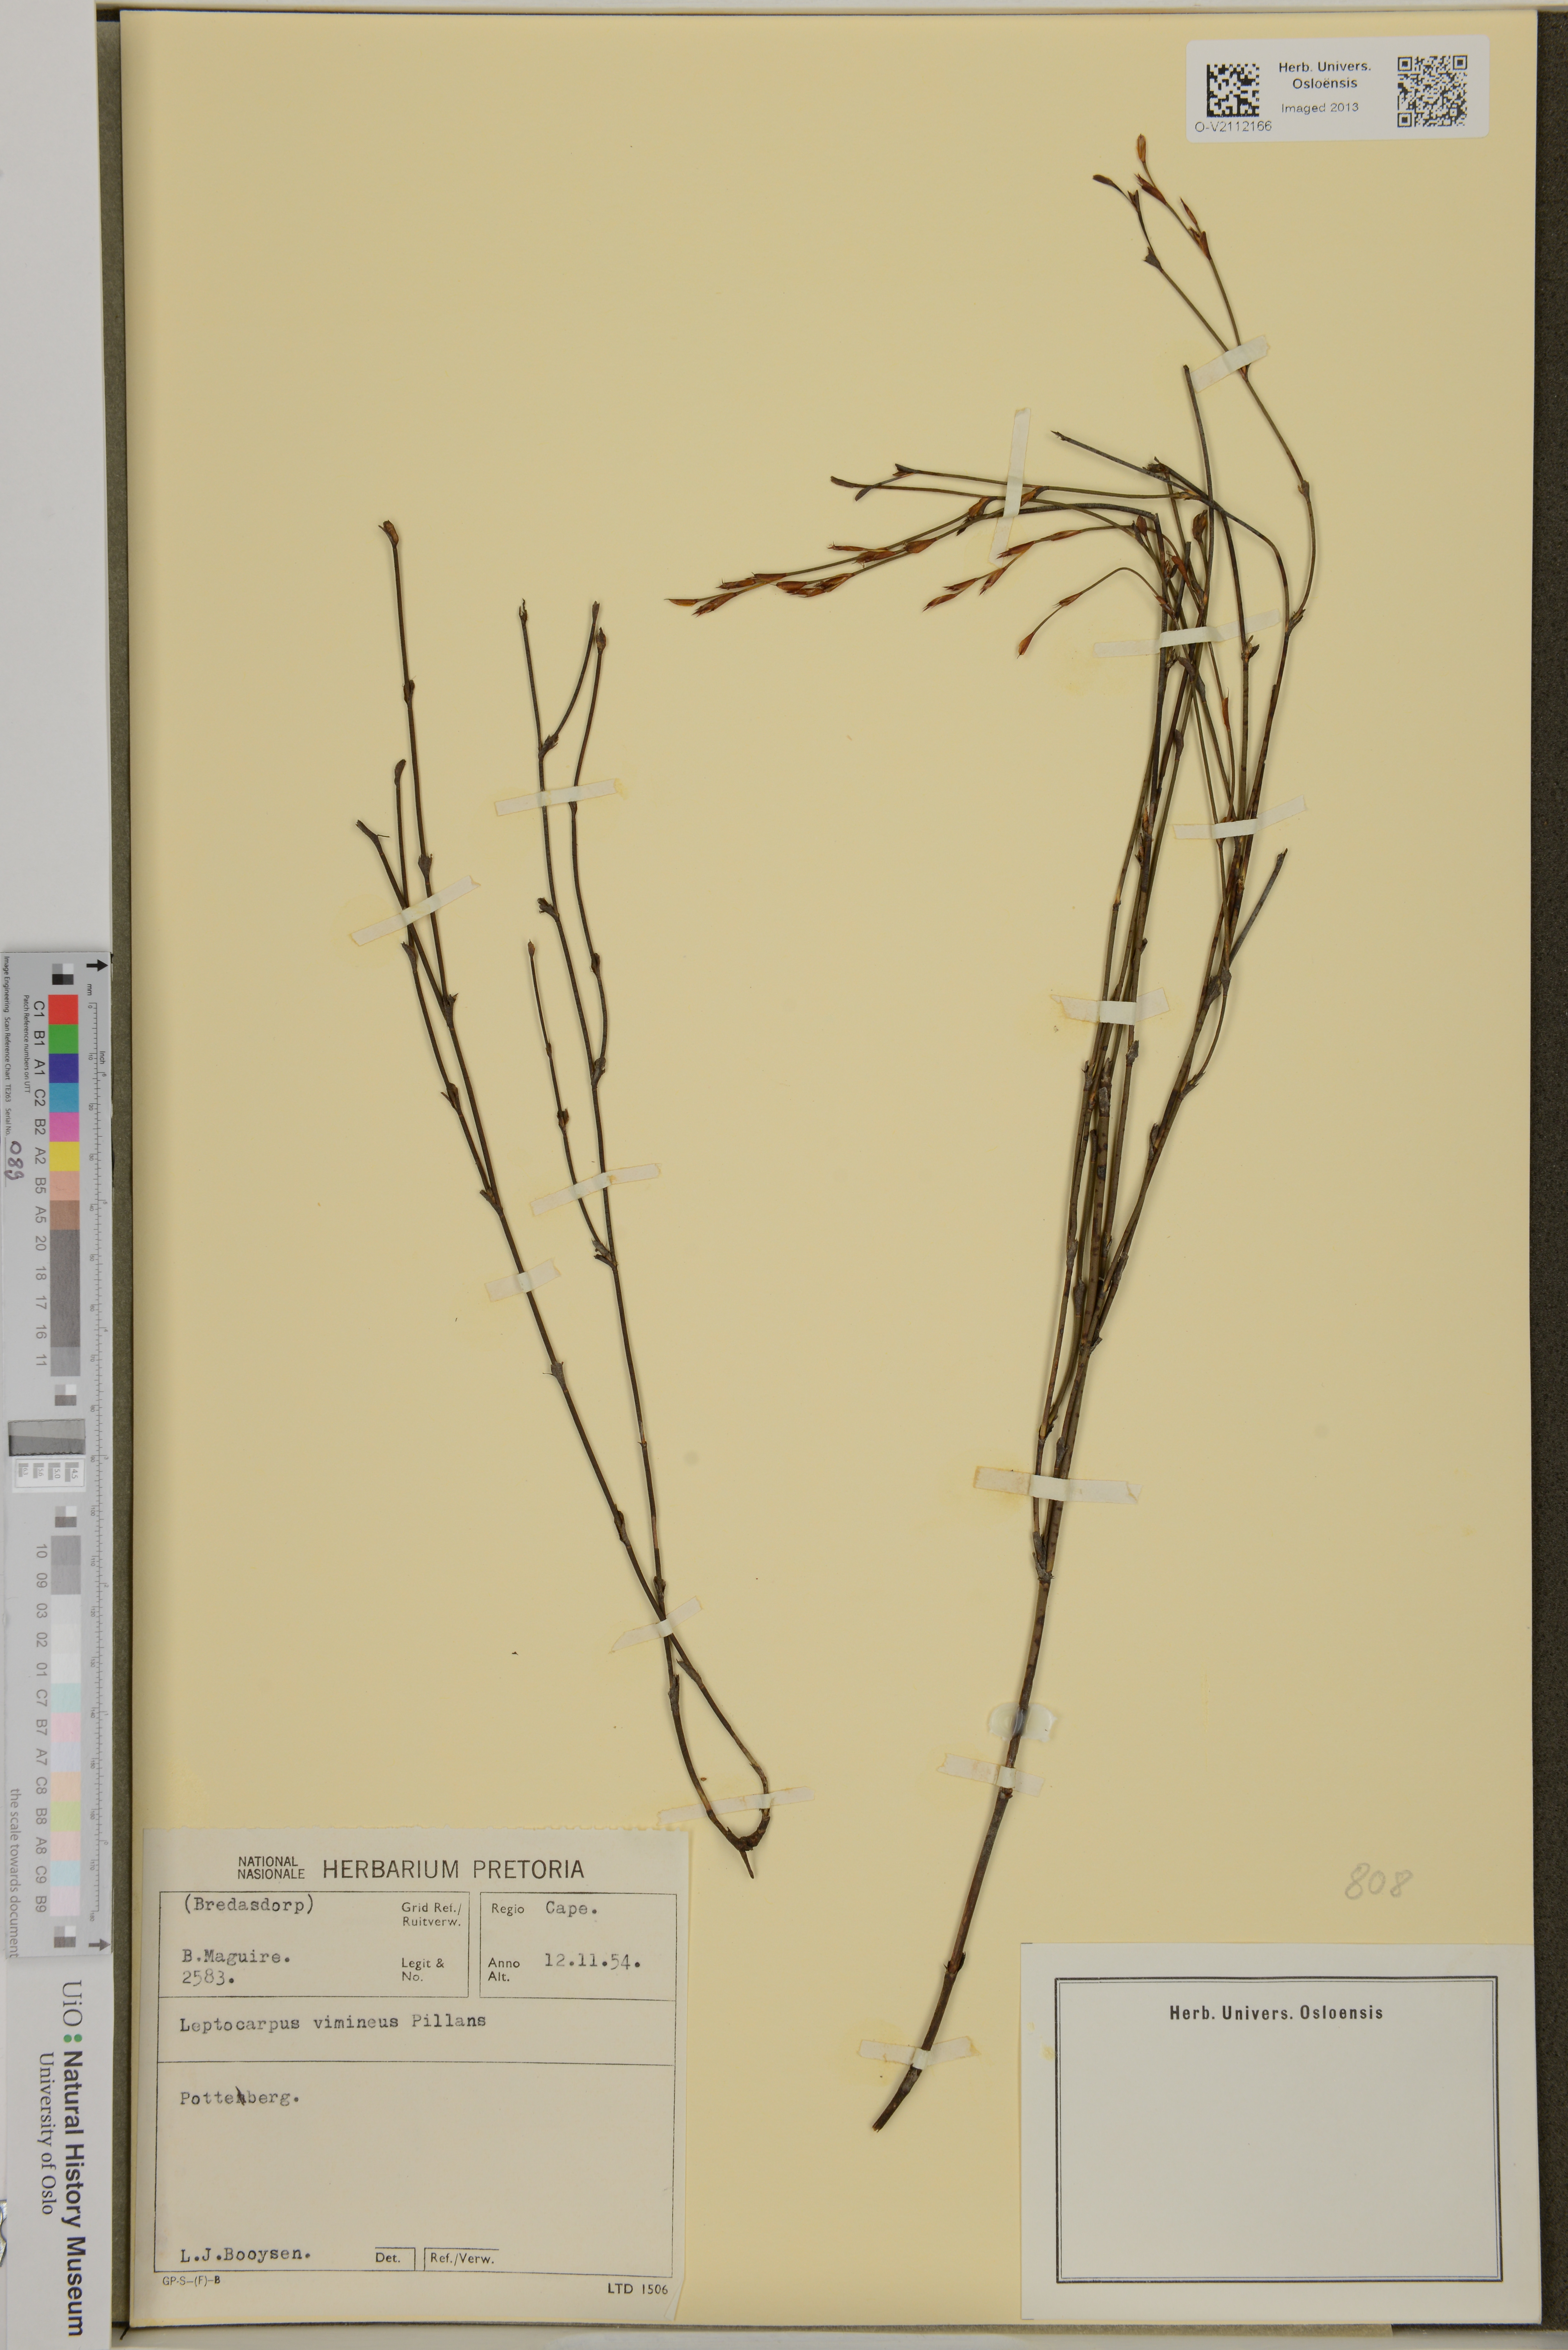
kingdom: Plantae
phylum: Tracheophyta
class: Liliopsida
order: Poales
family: Restionaceae
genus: Restio
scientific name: Restio vimineus
